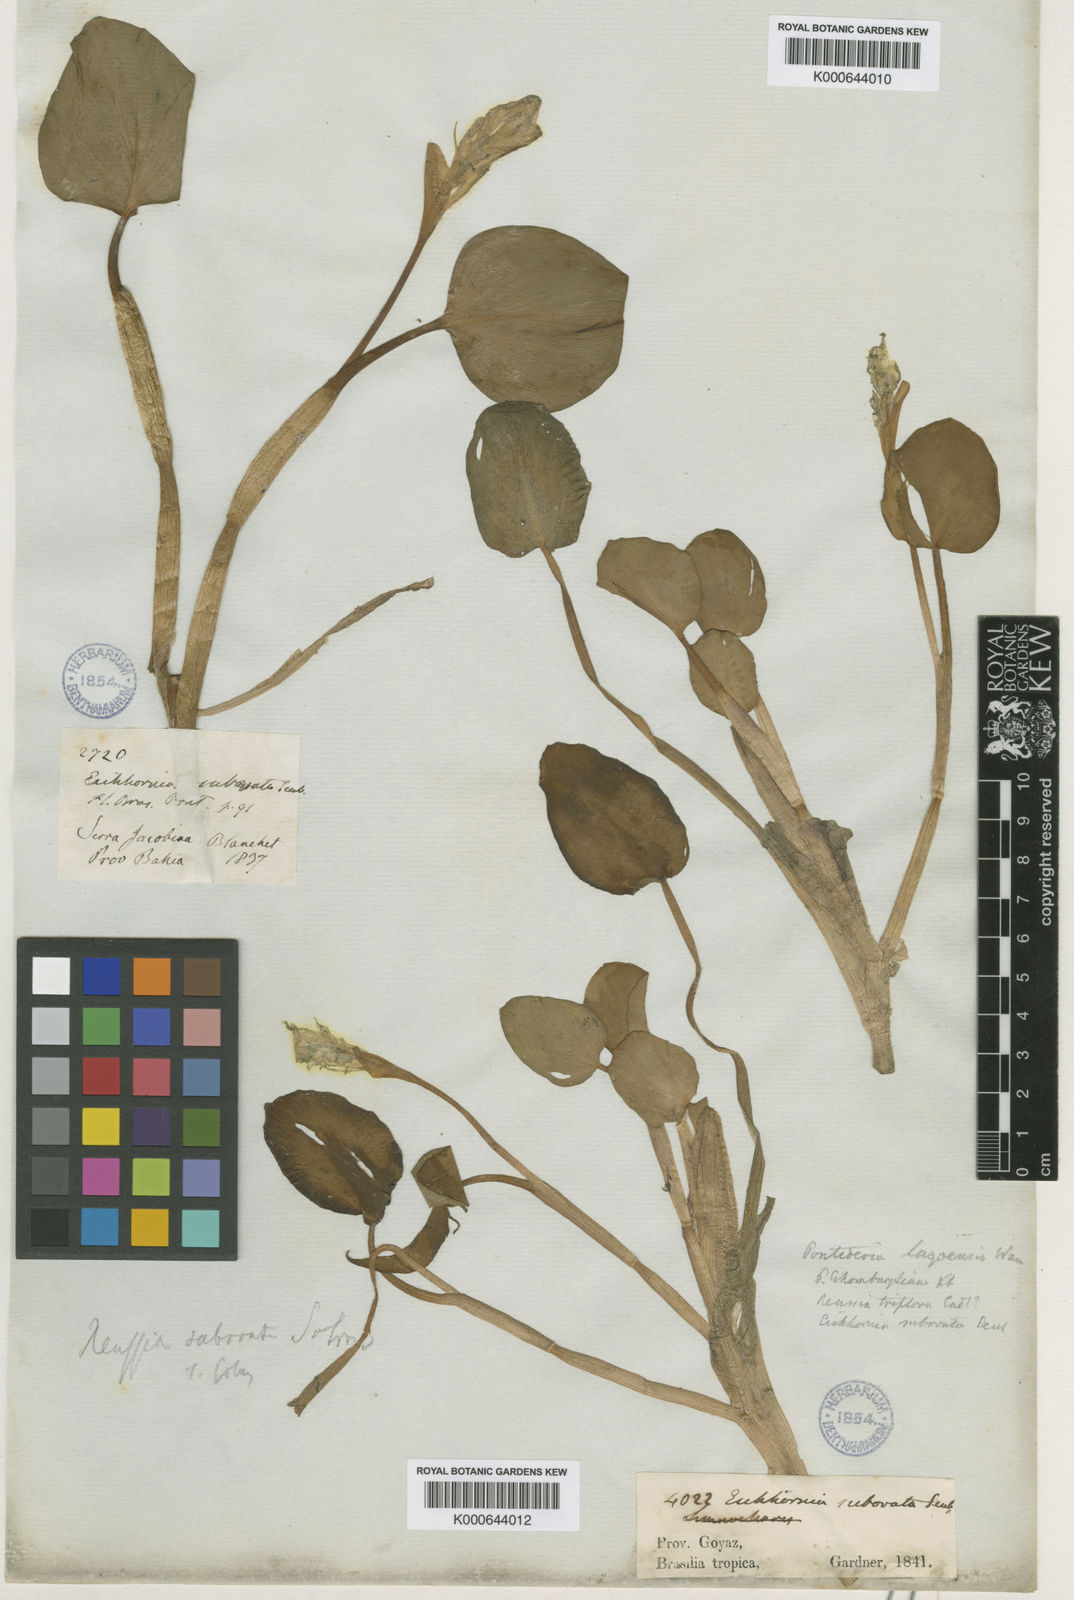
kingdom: Plantae
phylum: Tracheophyta
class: Liliopsida
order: Commelinales
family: Pontederiaceae
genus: Pontederia
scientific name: Pontederia subovata
